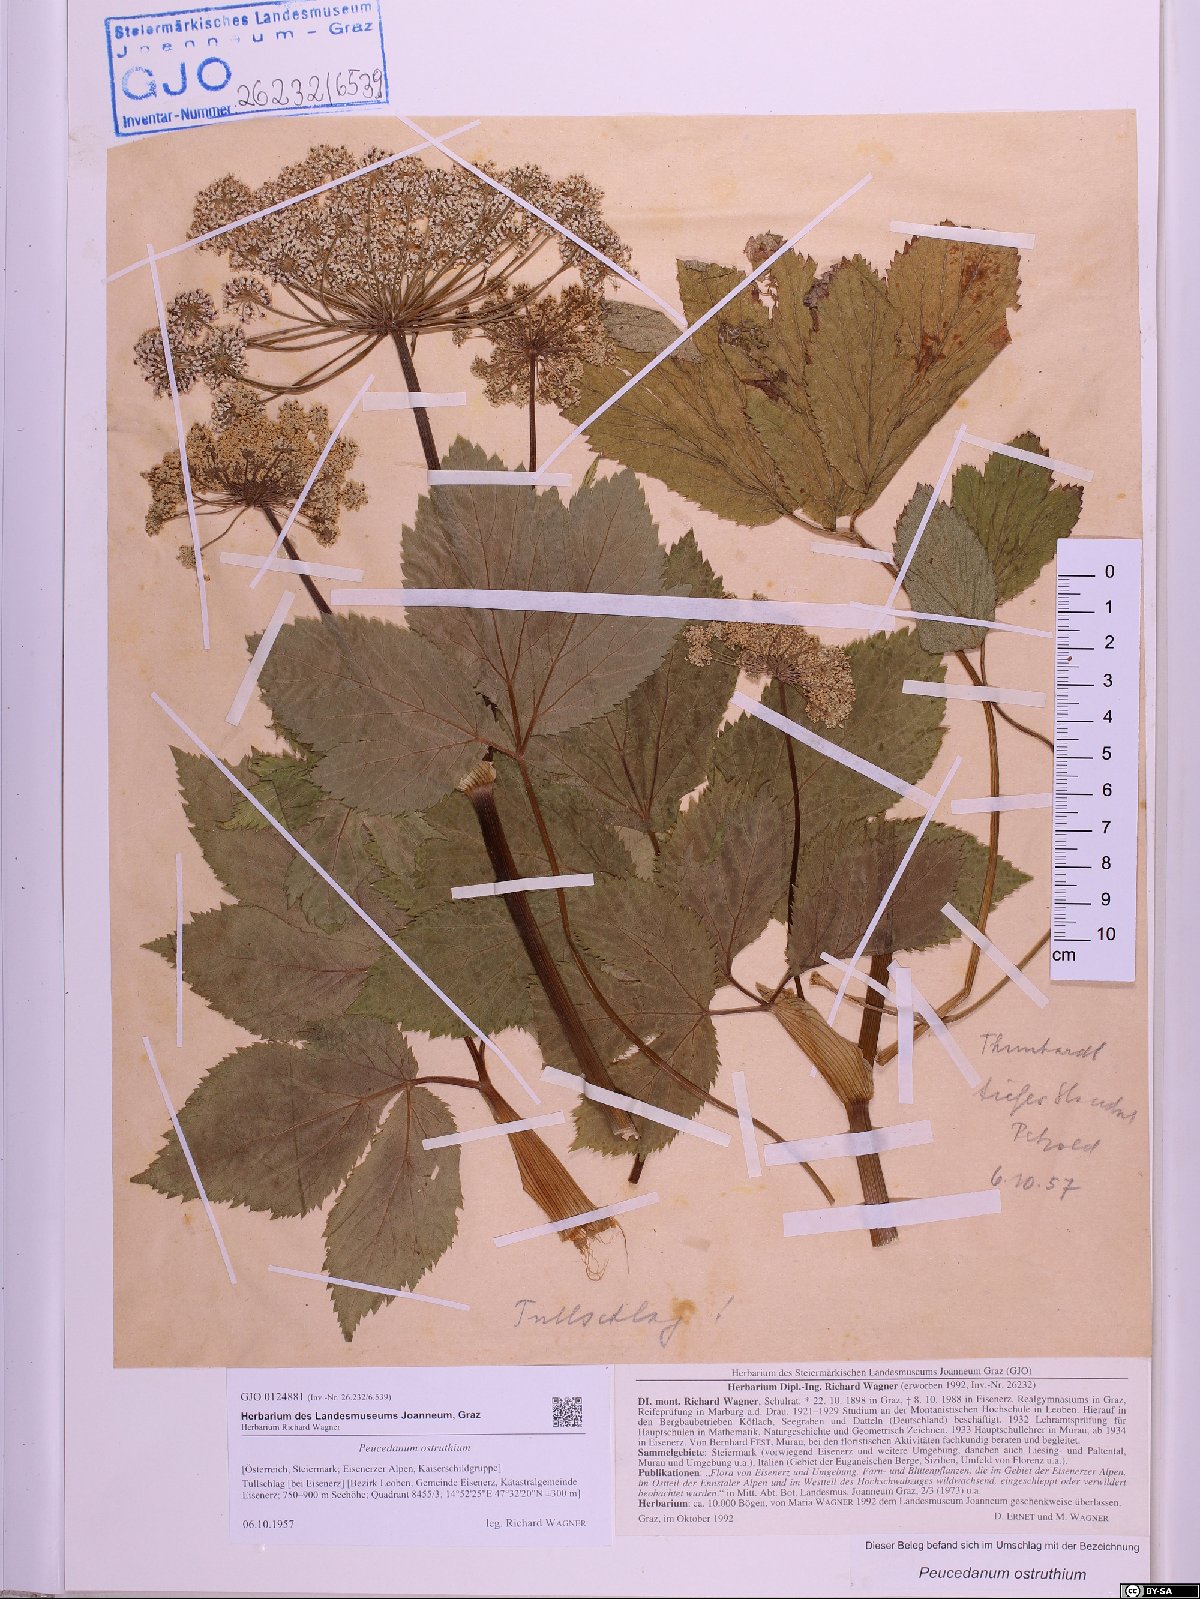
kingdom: Plantae
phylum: Tracheophyta
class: Magnoliopsida
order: Apiales
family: Apiaceae
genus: Imperatoria
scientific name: Imperatoria ostruthium
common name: Masterwort
